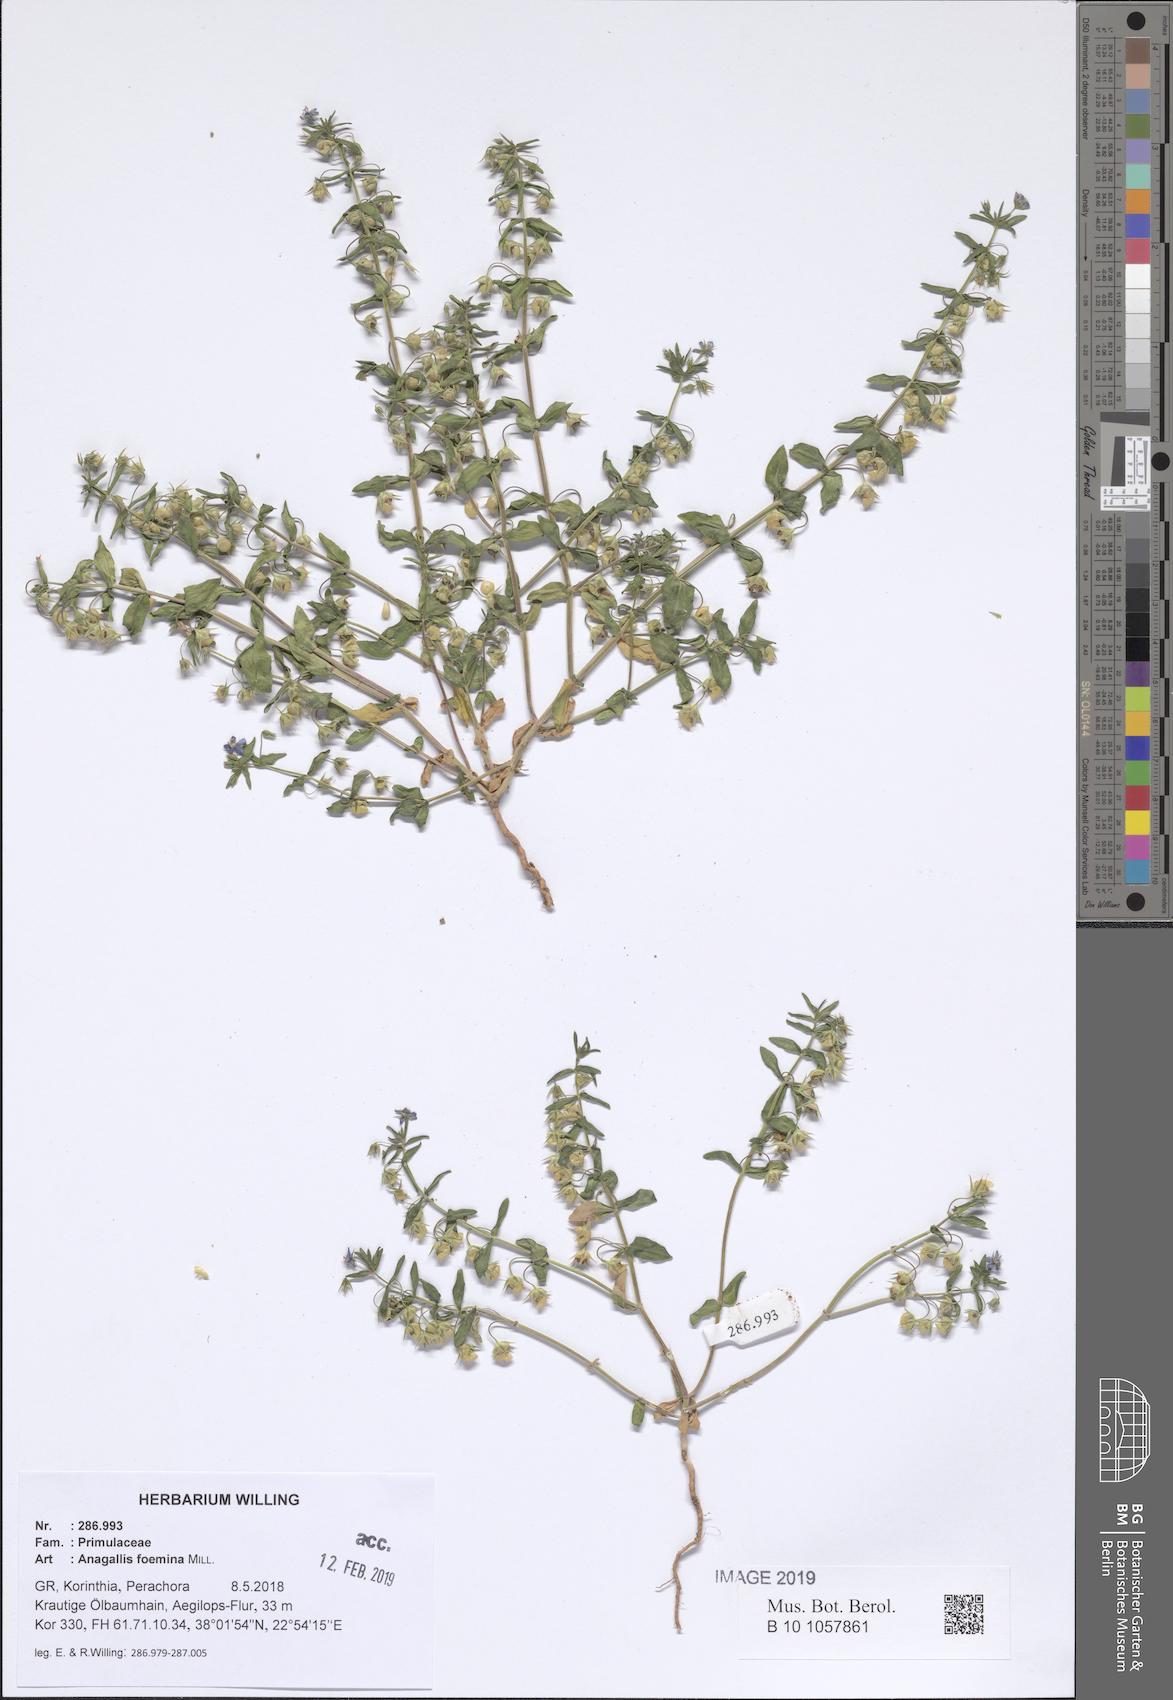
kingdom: Plantae
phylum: Tracheophyta
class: Magnoliopsida
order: Ericales
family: Primulaceae
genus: Lysimachia
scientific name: Lysimachia foemina
